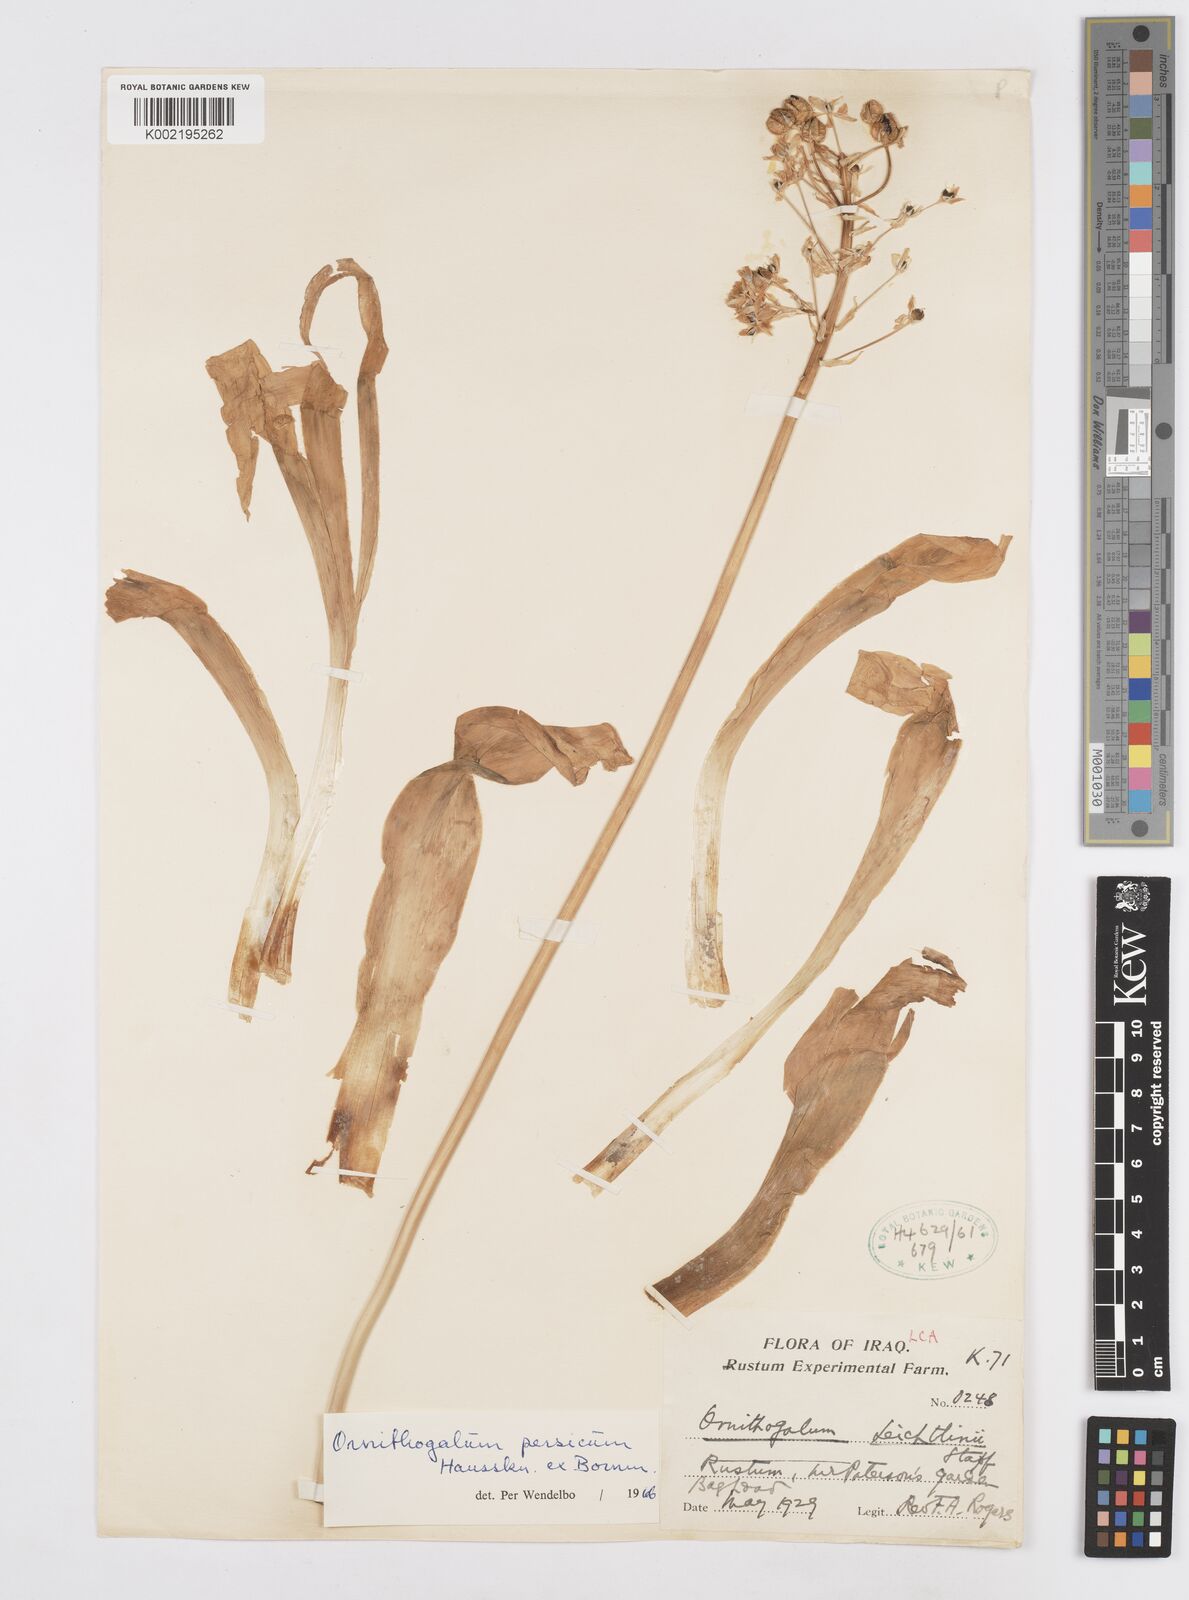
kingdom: Plantae
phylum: Tracheophyta
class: Liliopsida
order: Asparagales
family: Asparagaceae
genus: Ornithogalum
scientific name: Ornithogalum persicum
